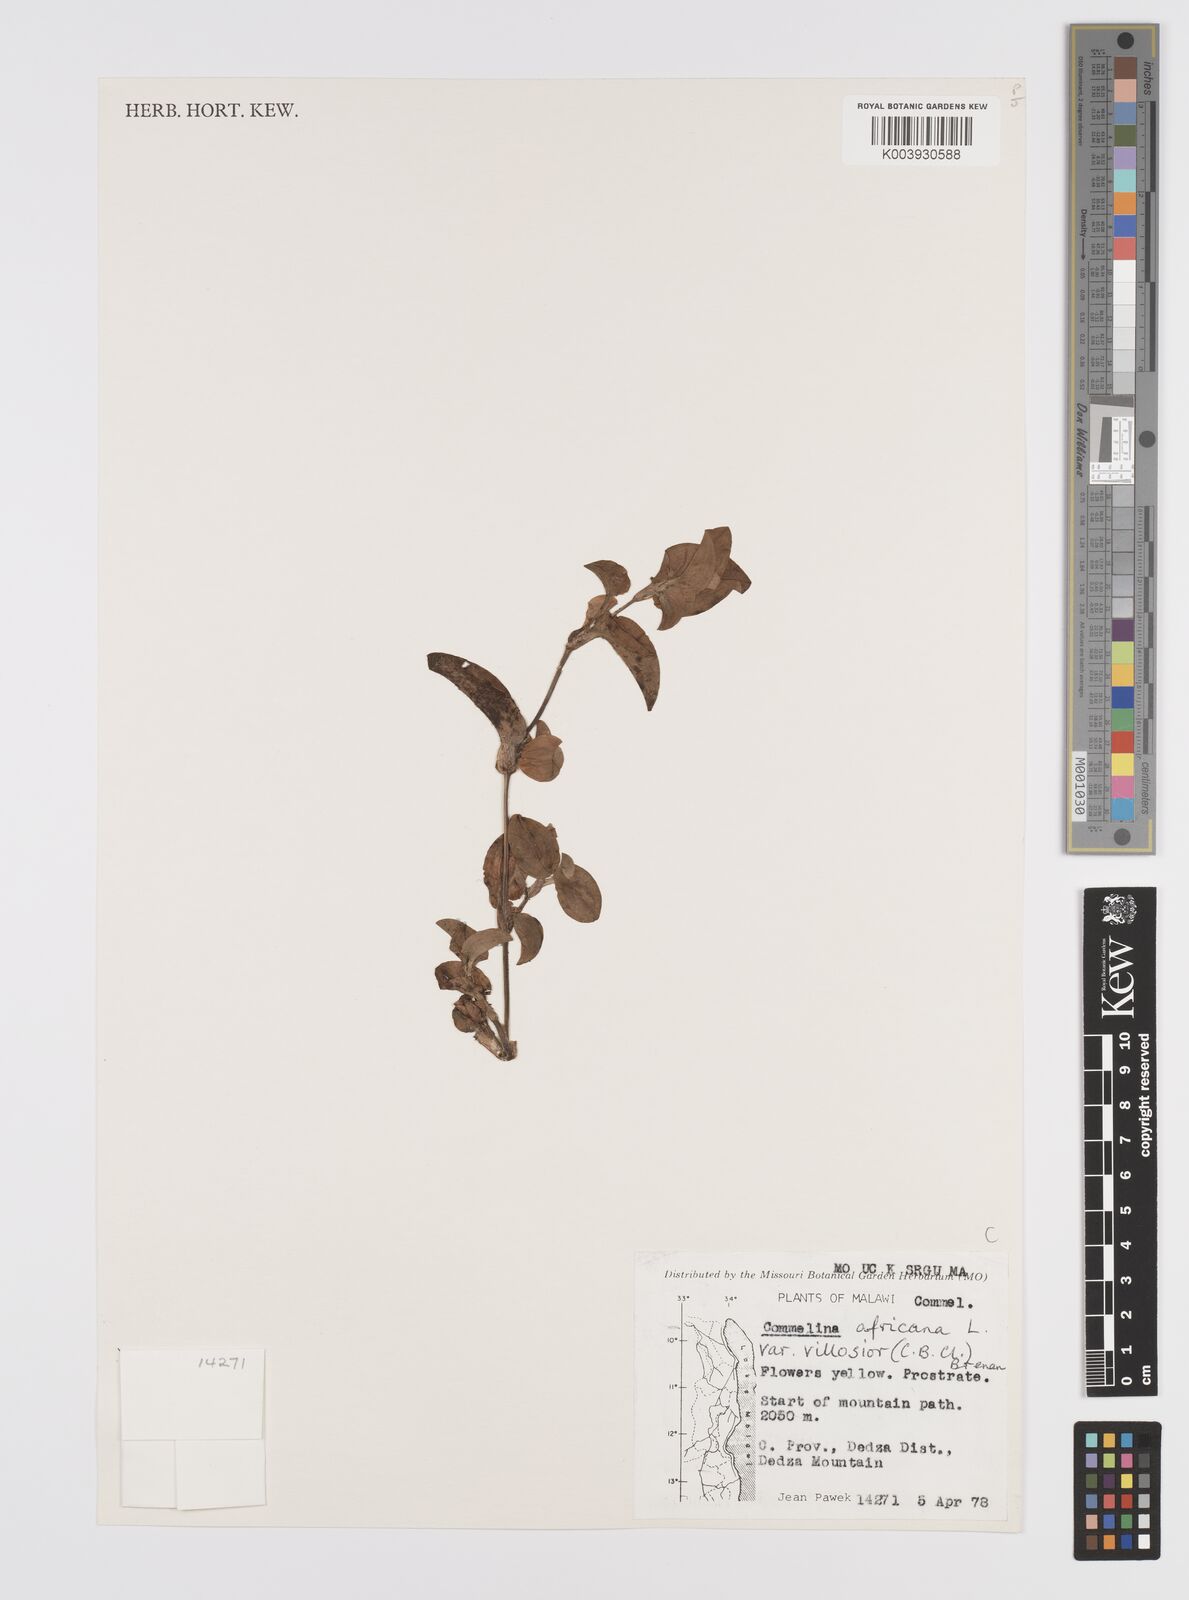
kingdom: Plantae
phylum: Tracheophyta
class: Liliopsida
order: Commelinales
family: Commelinaceae
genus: Commelina
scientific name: Commelina africana
